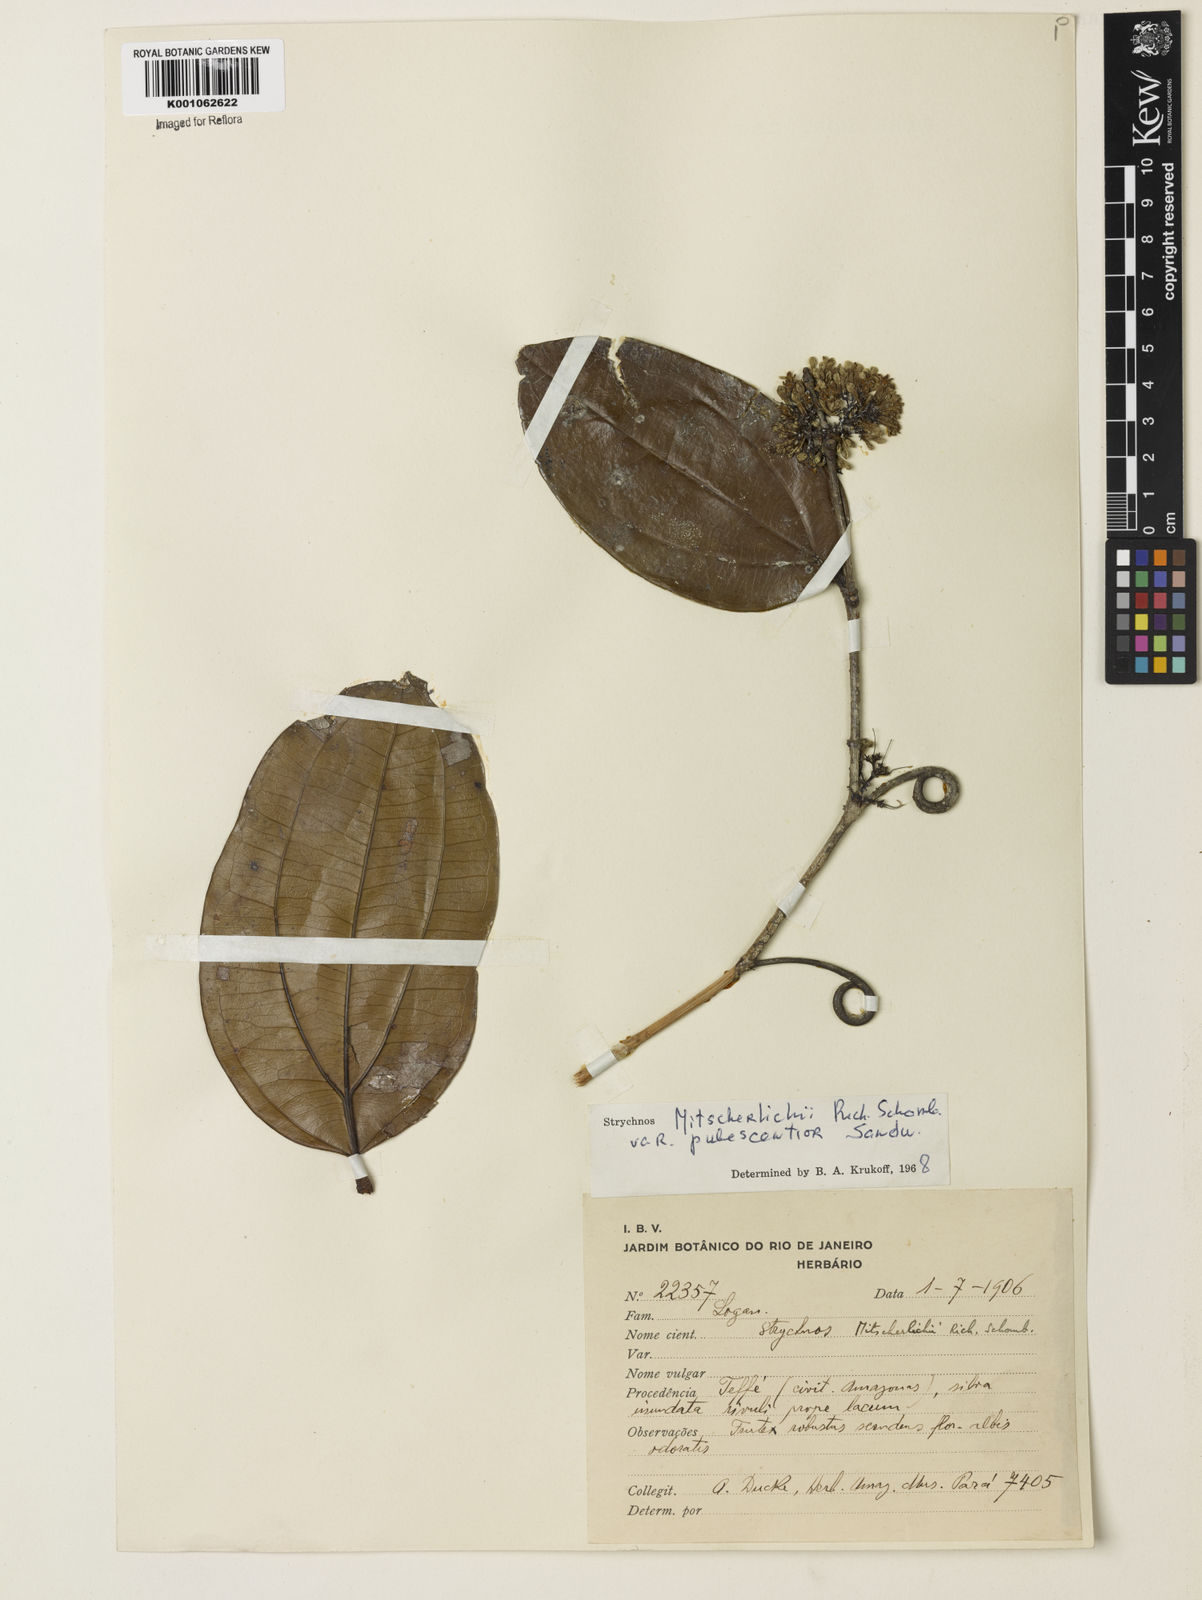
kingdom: Plantae
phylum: Tracheophyta
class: Magnoliopsida
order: Gentianales
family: Loganiaceae
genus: Strychnos
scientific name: Strychnos mitscherlichii
